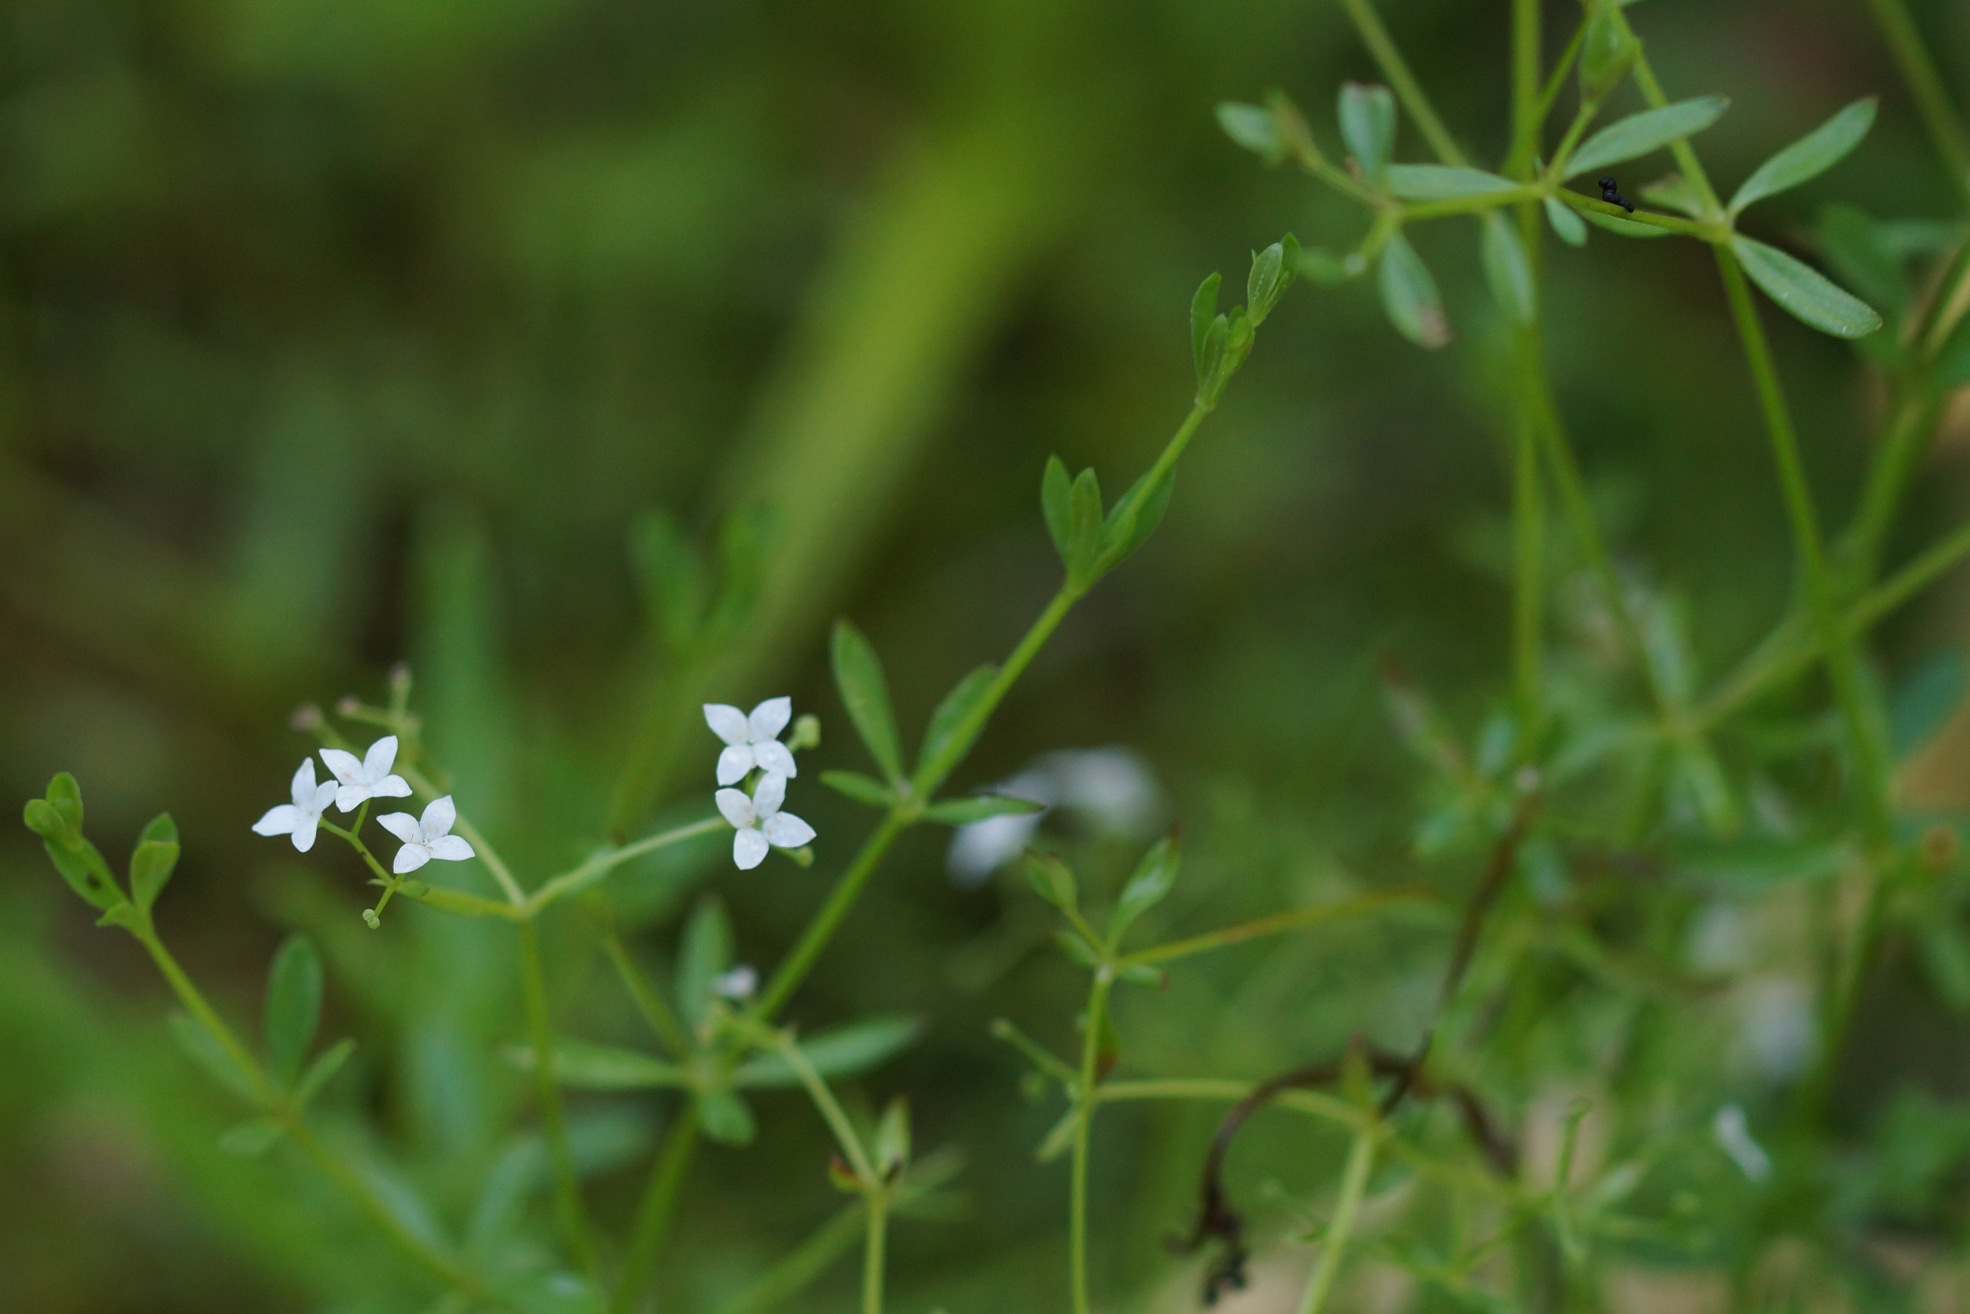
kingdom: Plantae
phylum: Tracheophyta
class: Magnoliopsida
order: Gentianales
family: Rubiaceae
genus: Galium
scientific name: Galium palustre
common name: Kær-snerre
